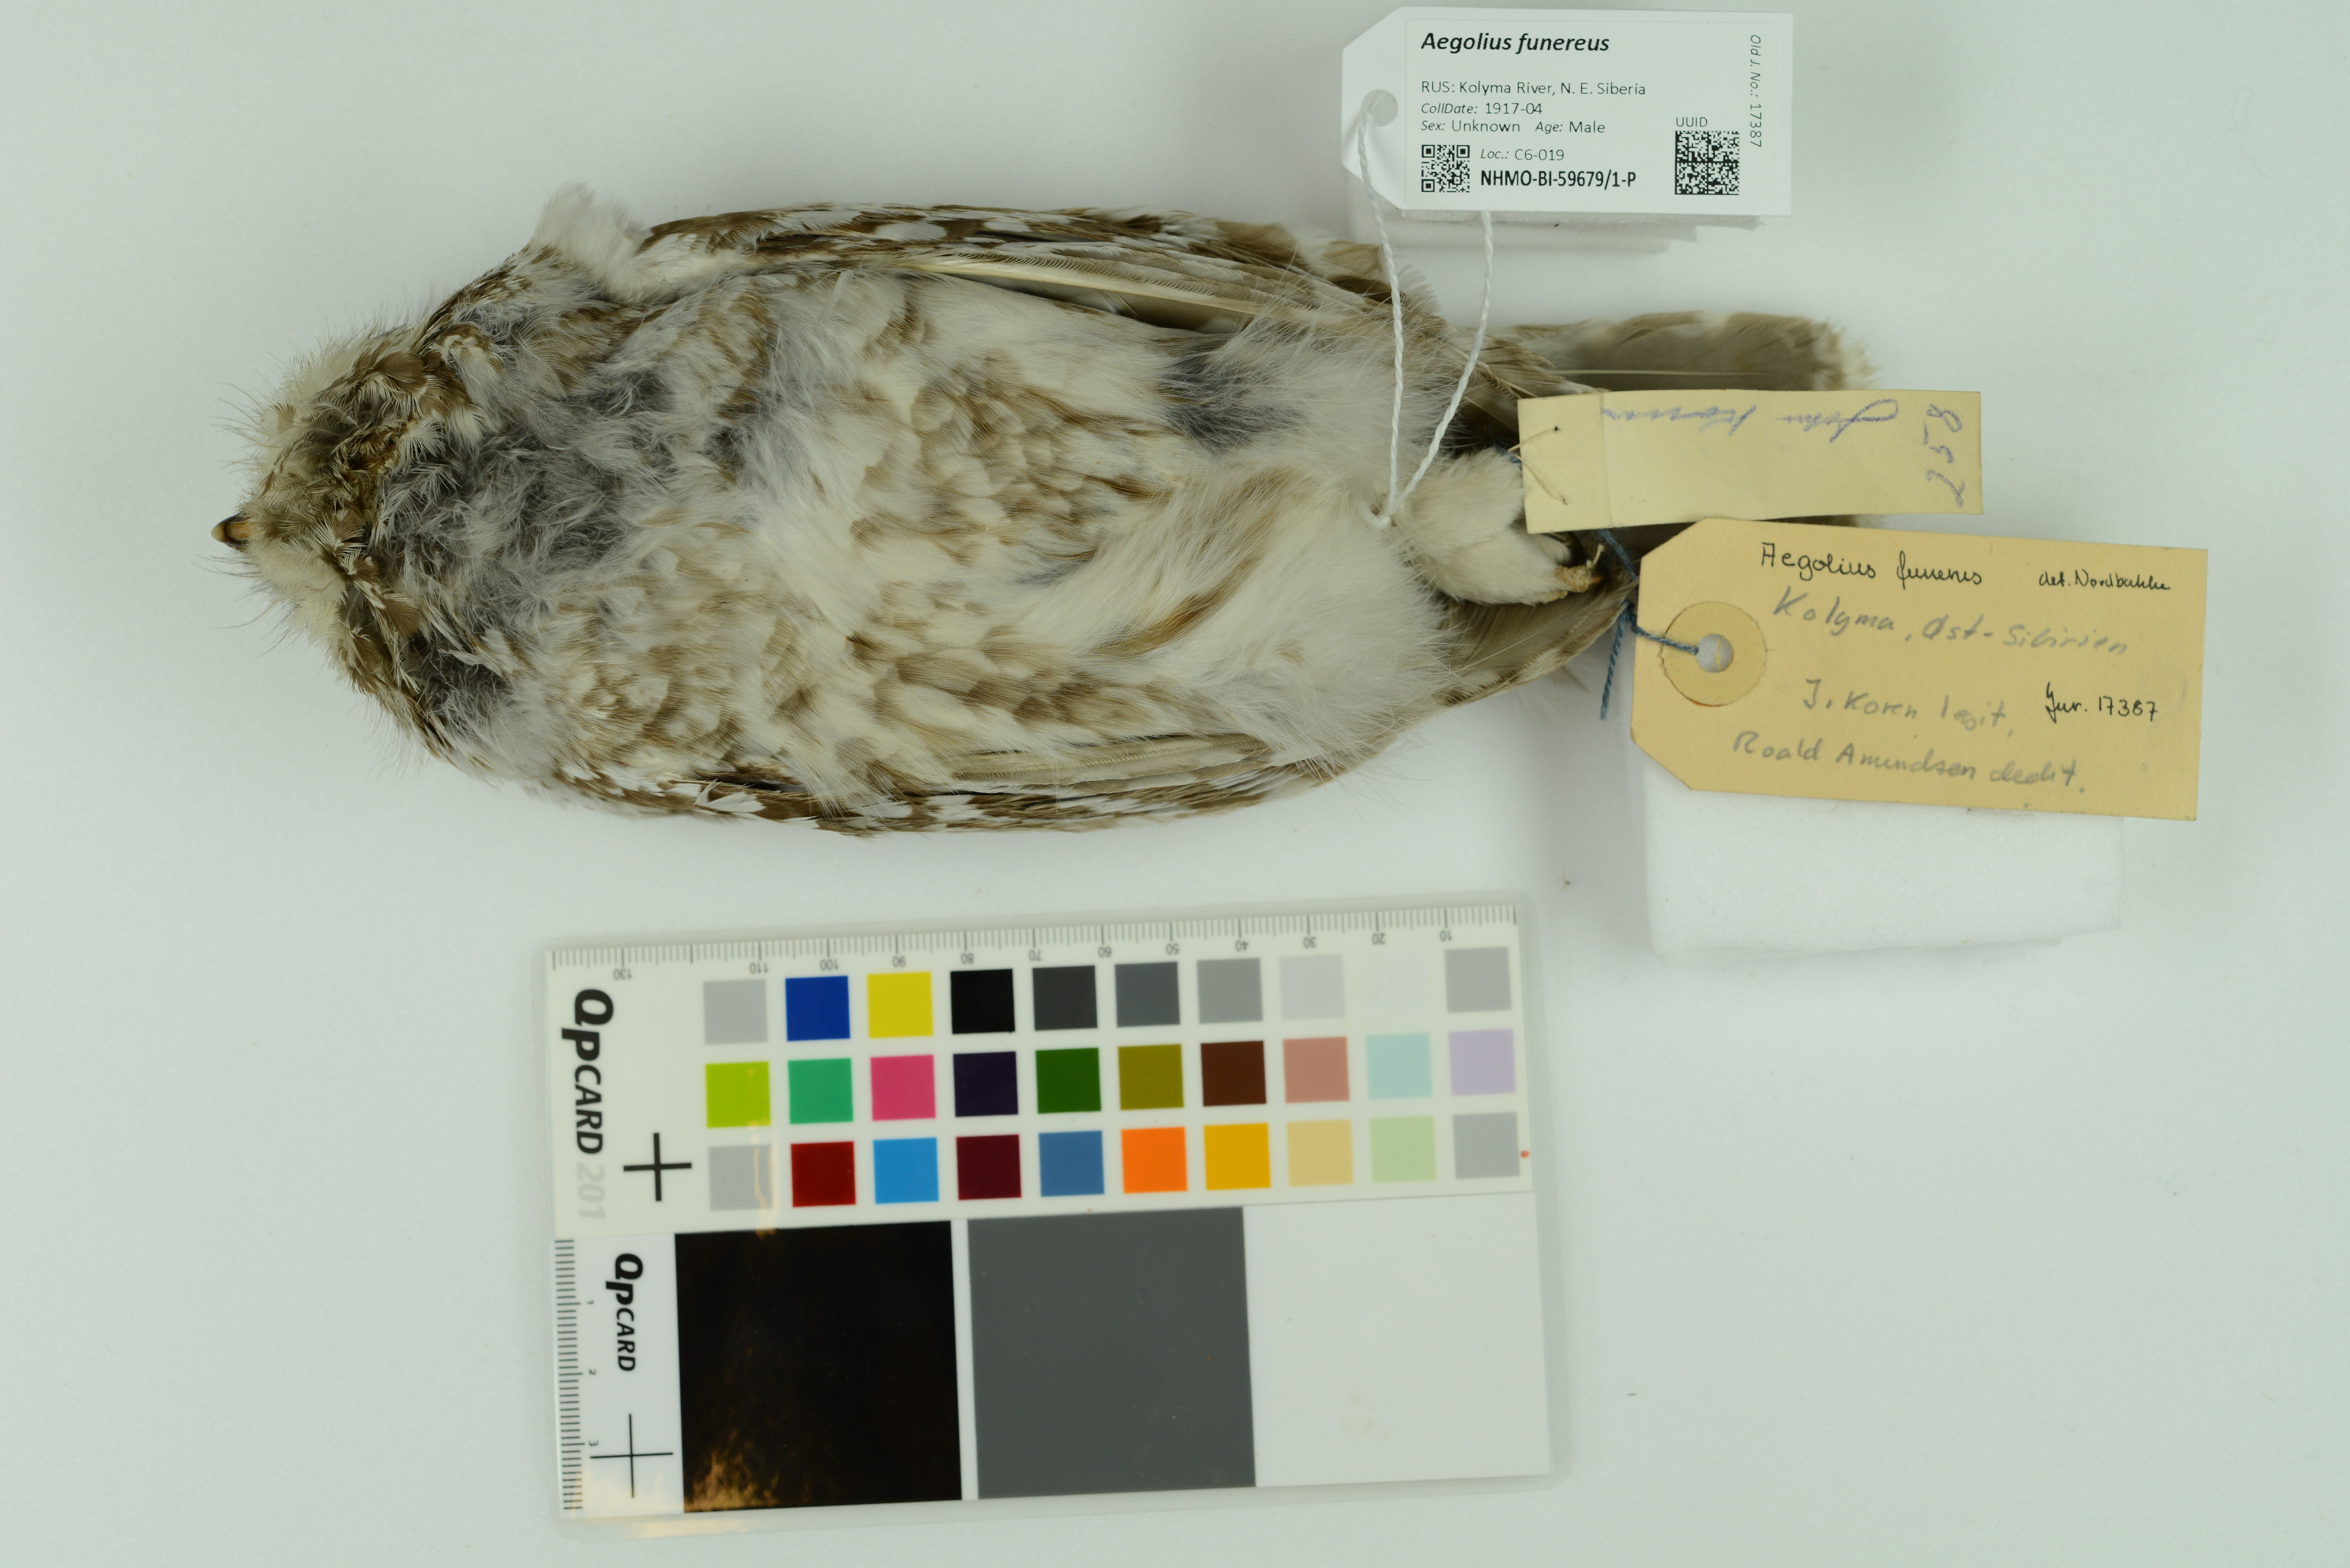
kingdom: Animalia
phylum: Chordata
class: Aves
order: Strigiformes
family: Strigidae
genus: Aegolius
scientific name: Aegolius funereus
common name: Boreal owl
